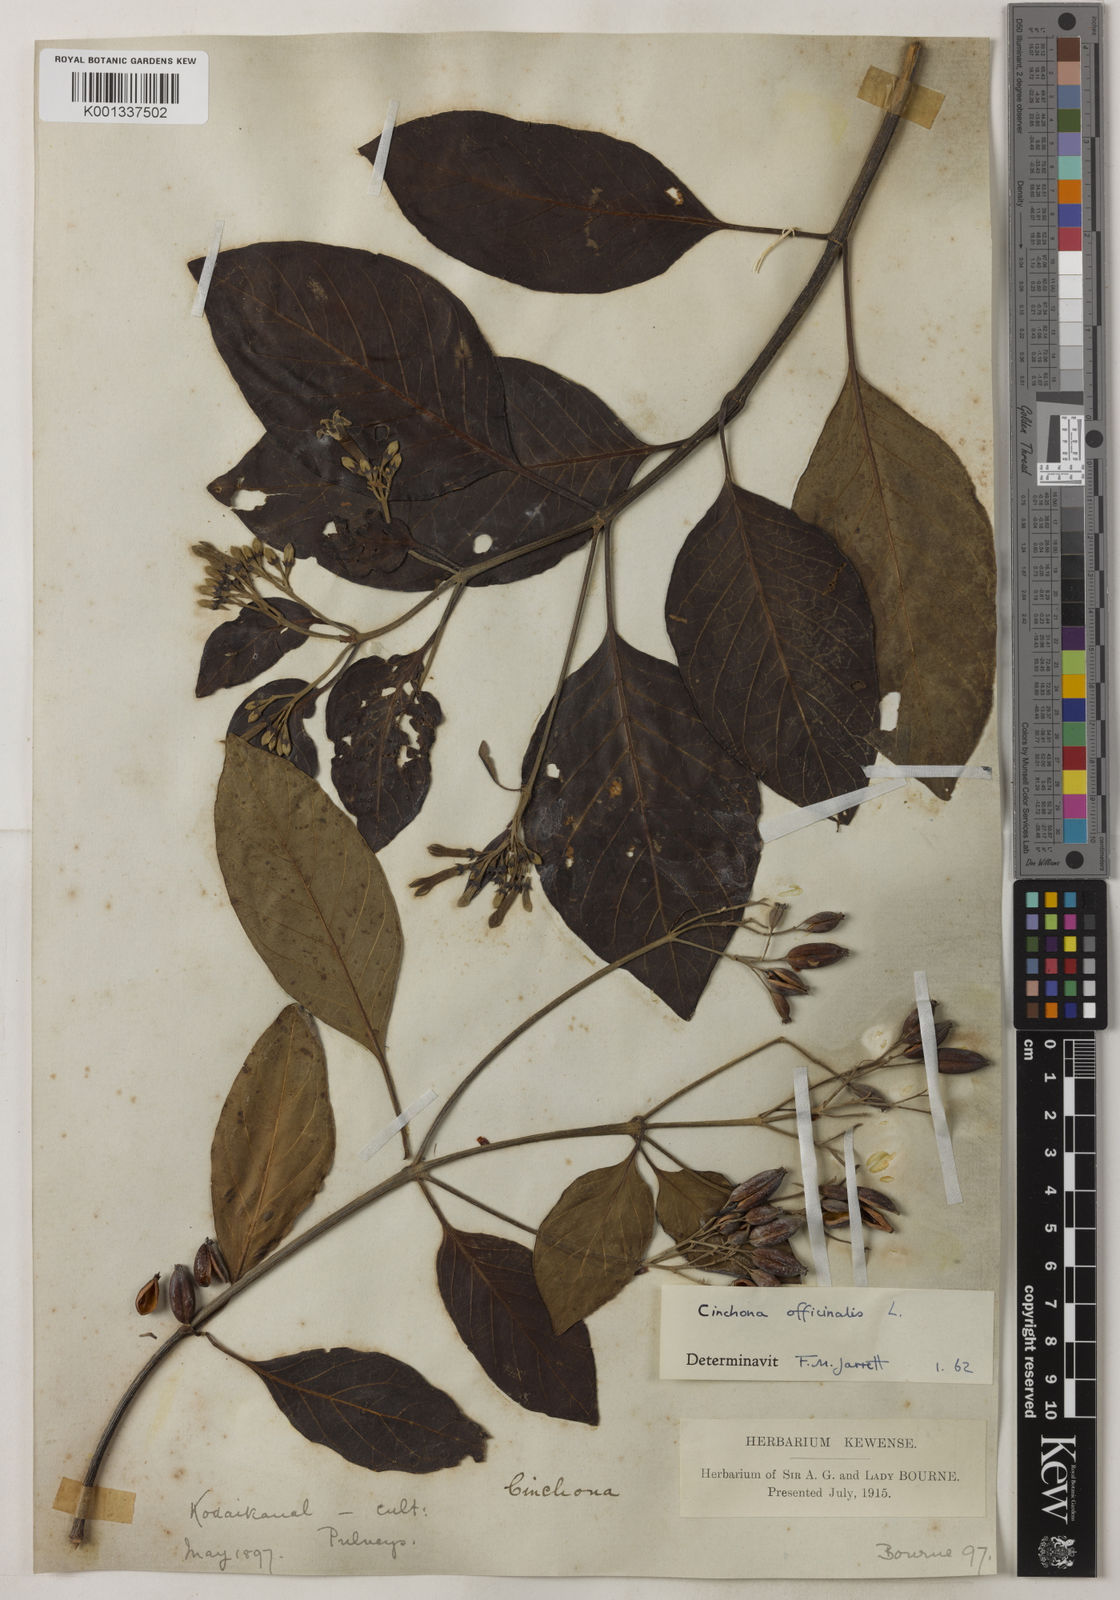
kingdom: Plantae
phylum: Tracheophyta
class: Magnoliopsida
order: Gentianales
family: Rubiaceae
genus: Cinchona
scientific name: Cinchona officinalis
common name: Lojabark
